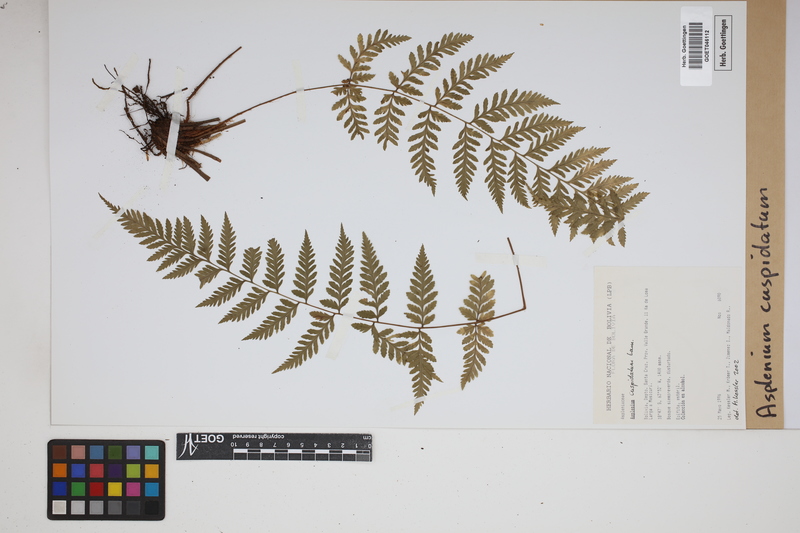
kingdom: Plantae
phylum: Tracheophyta
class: Polypodiopsida
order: Polypodiales
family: Aspleniaceae
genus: Asplenium
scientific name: Asplenium cuspidatum
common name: Eared spleenwort
